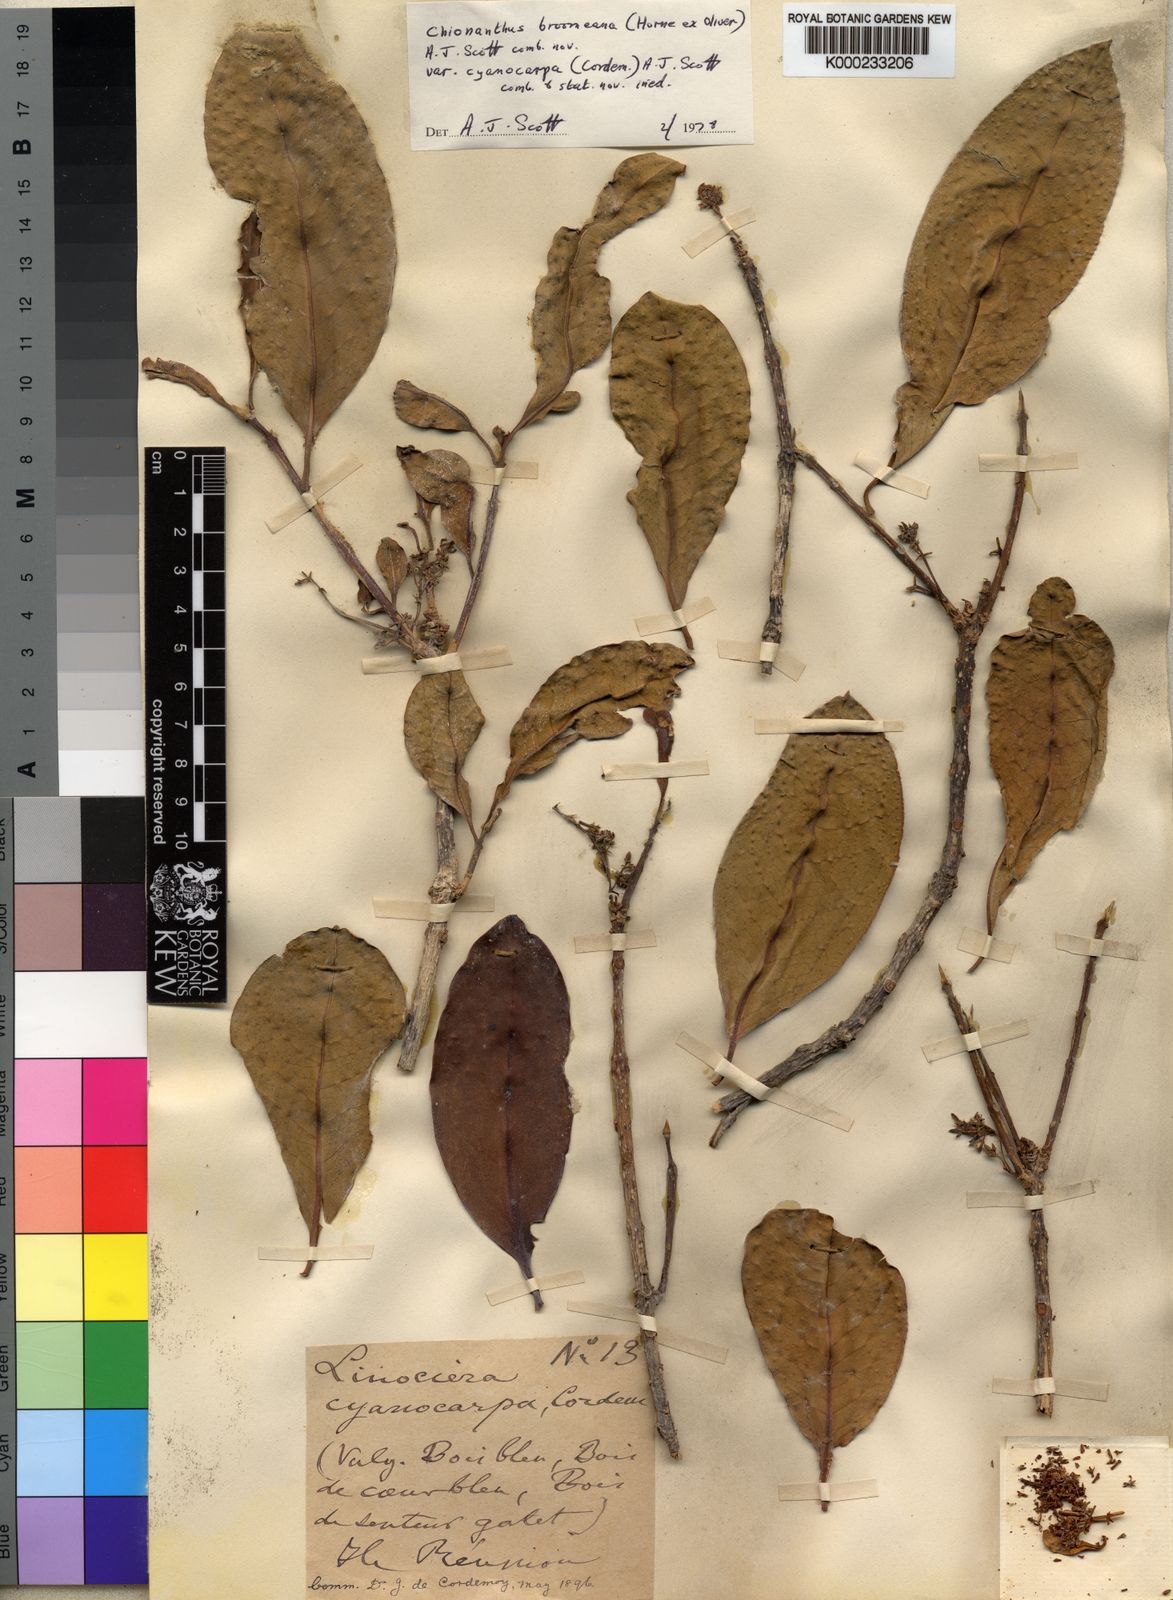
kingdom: Plantae
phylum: Tracheophyta
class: Magnoliopsida
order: Lamiales
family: Oleaceae
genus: Chionanthus
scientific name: Chionanthus
